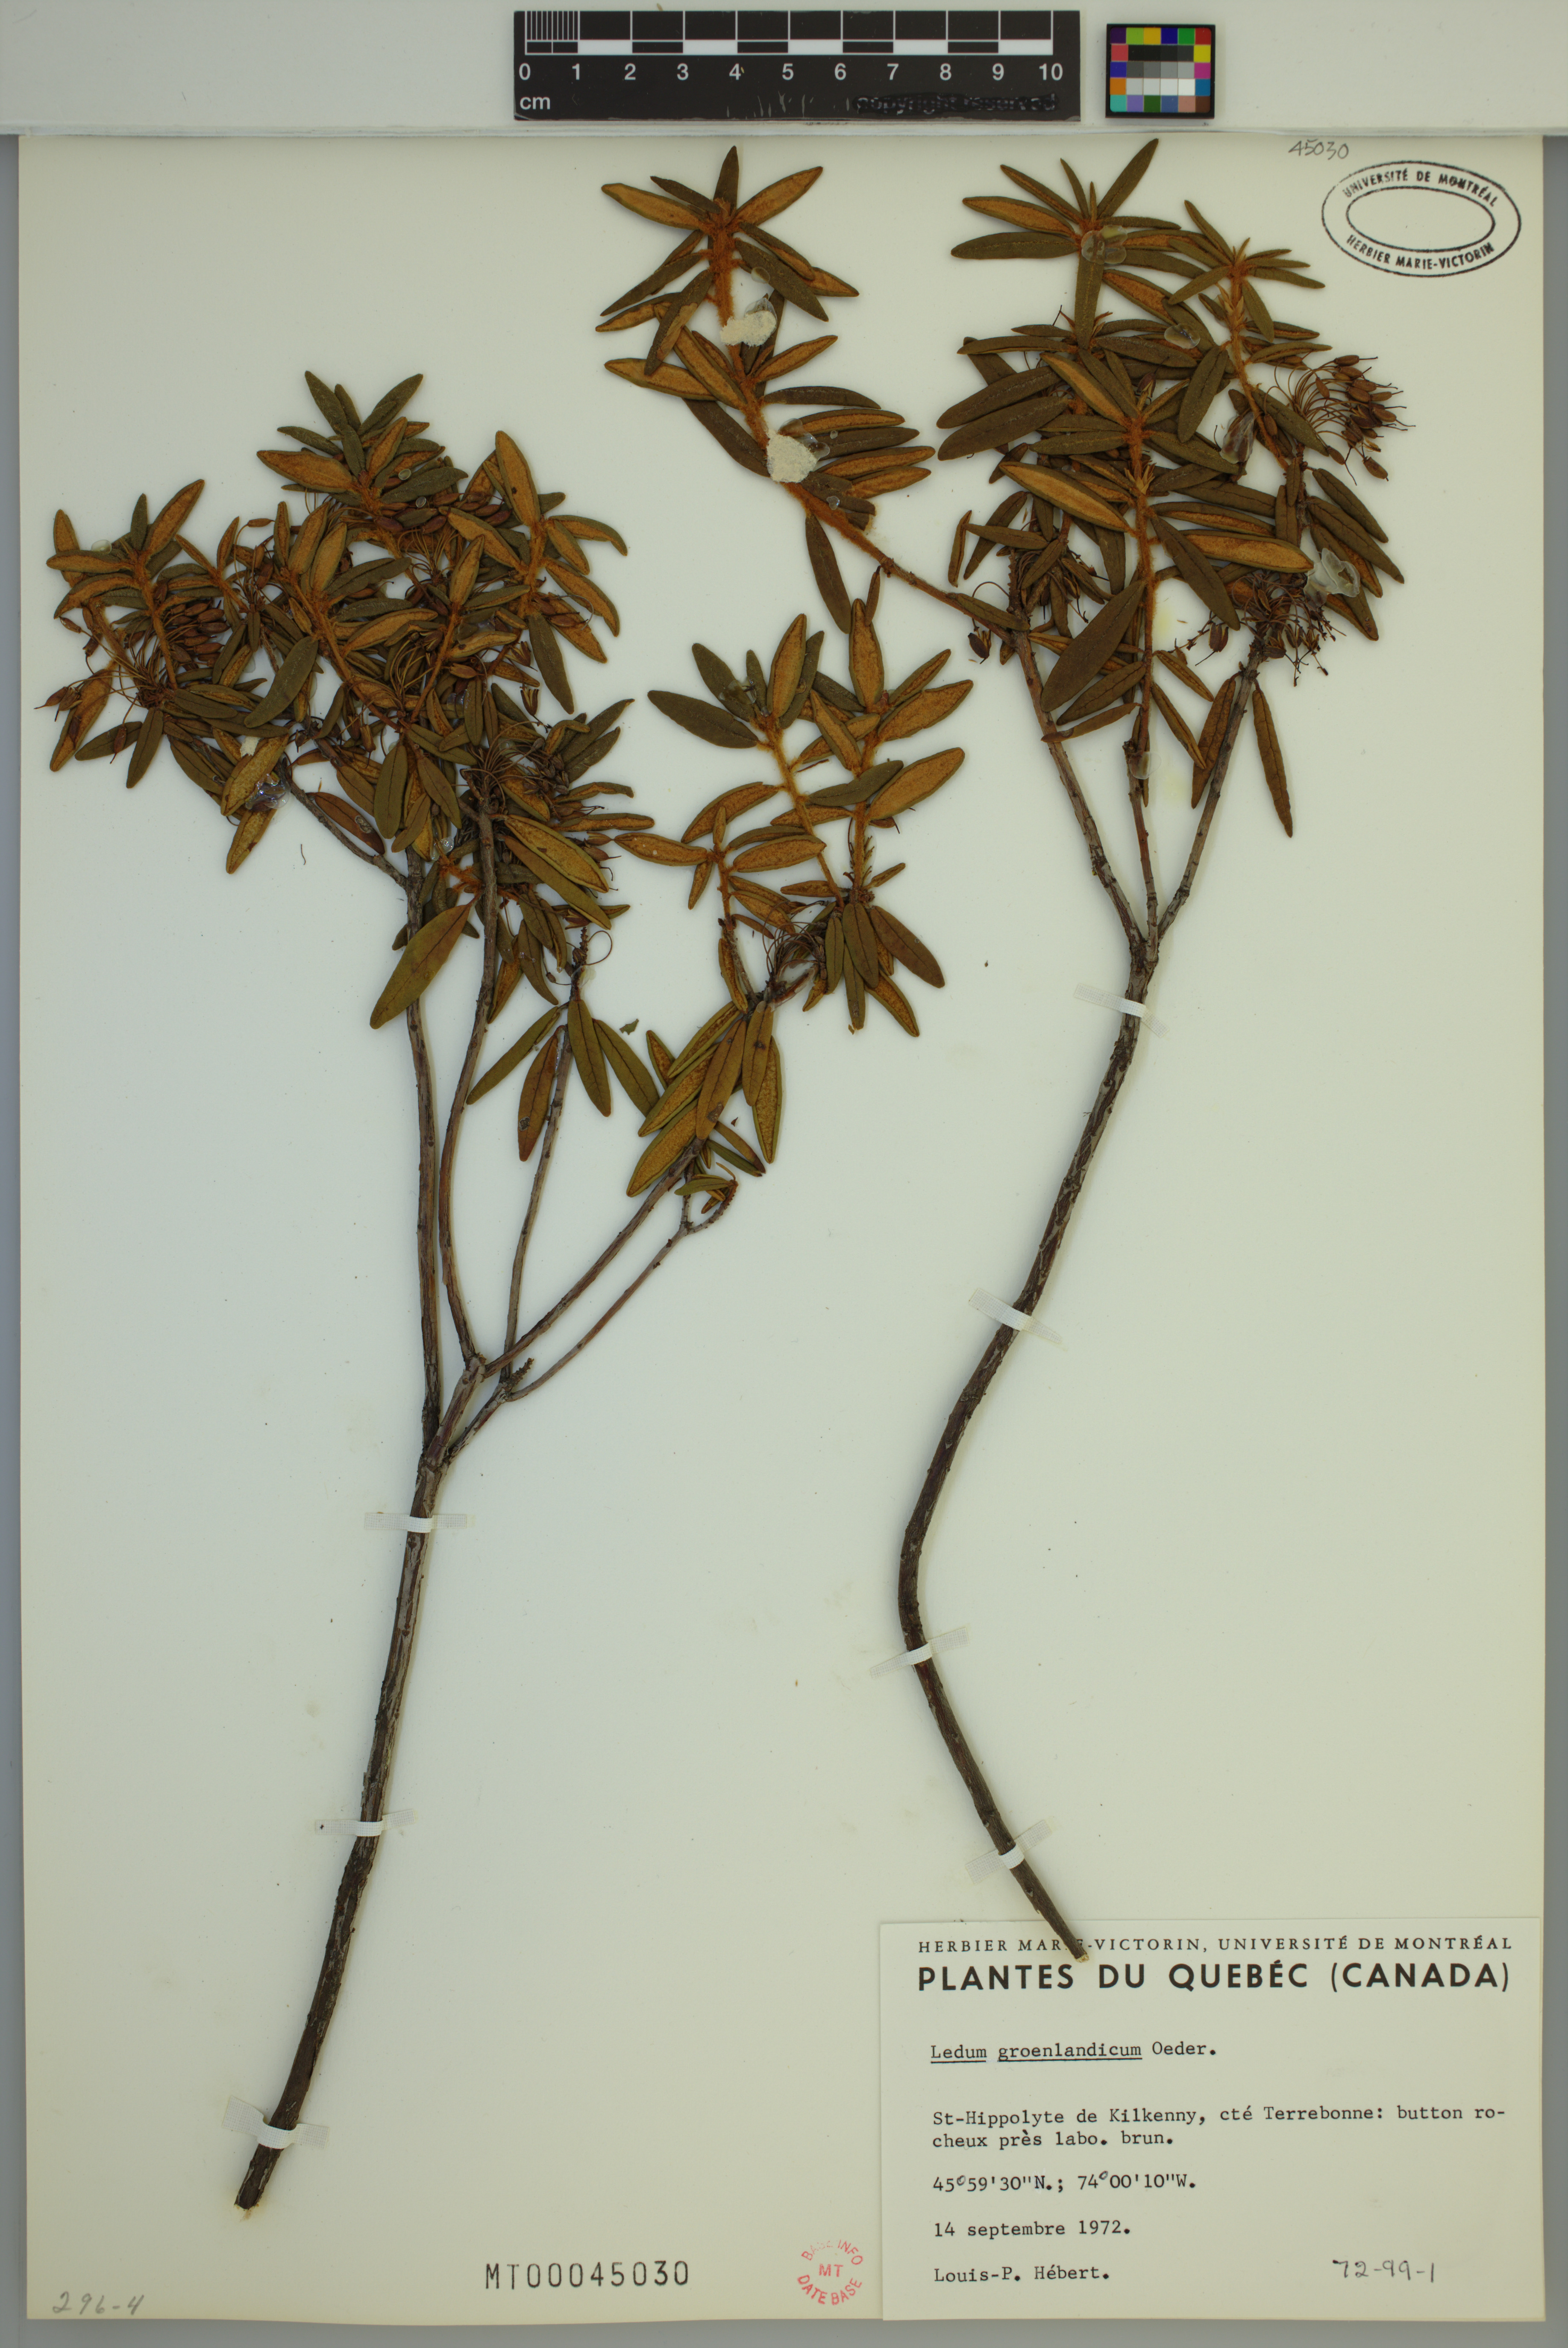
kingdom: Plantae
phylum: Tracheophyta
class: Magnoliopsida
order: Ericales
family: Ericaceae
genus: Rhododendron
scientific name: Rhododendron groenlandicum
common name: Bog labrador tea
